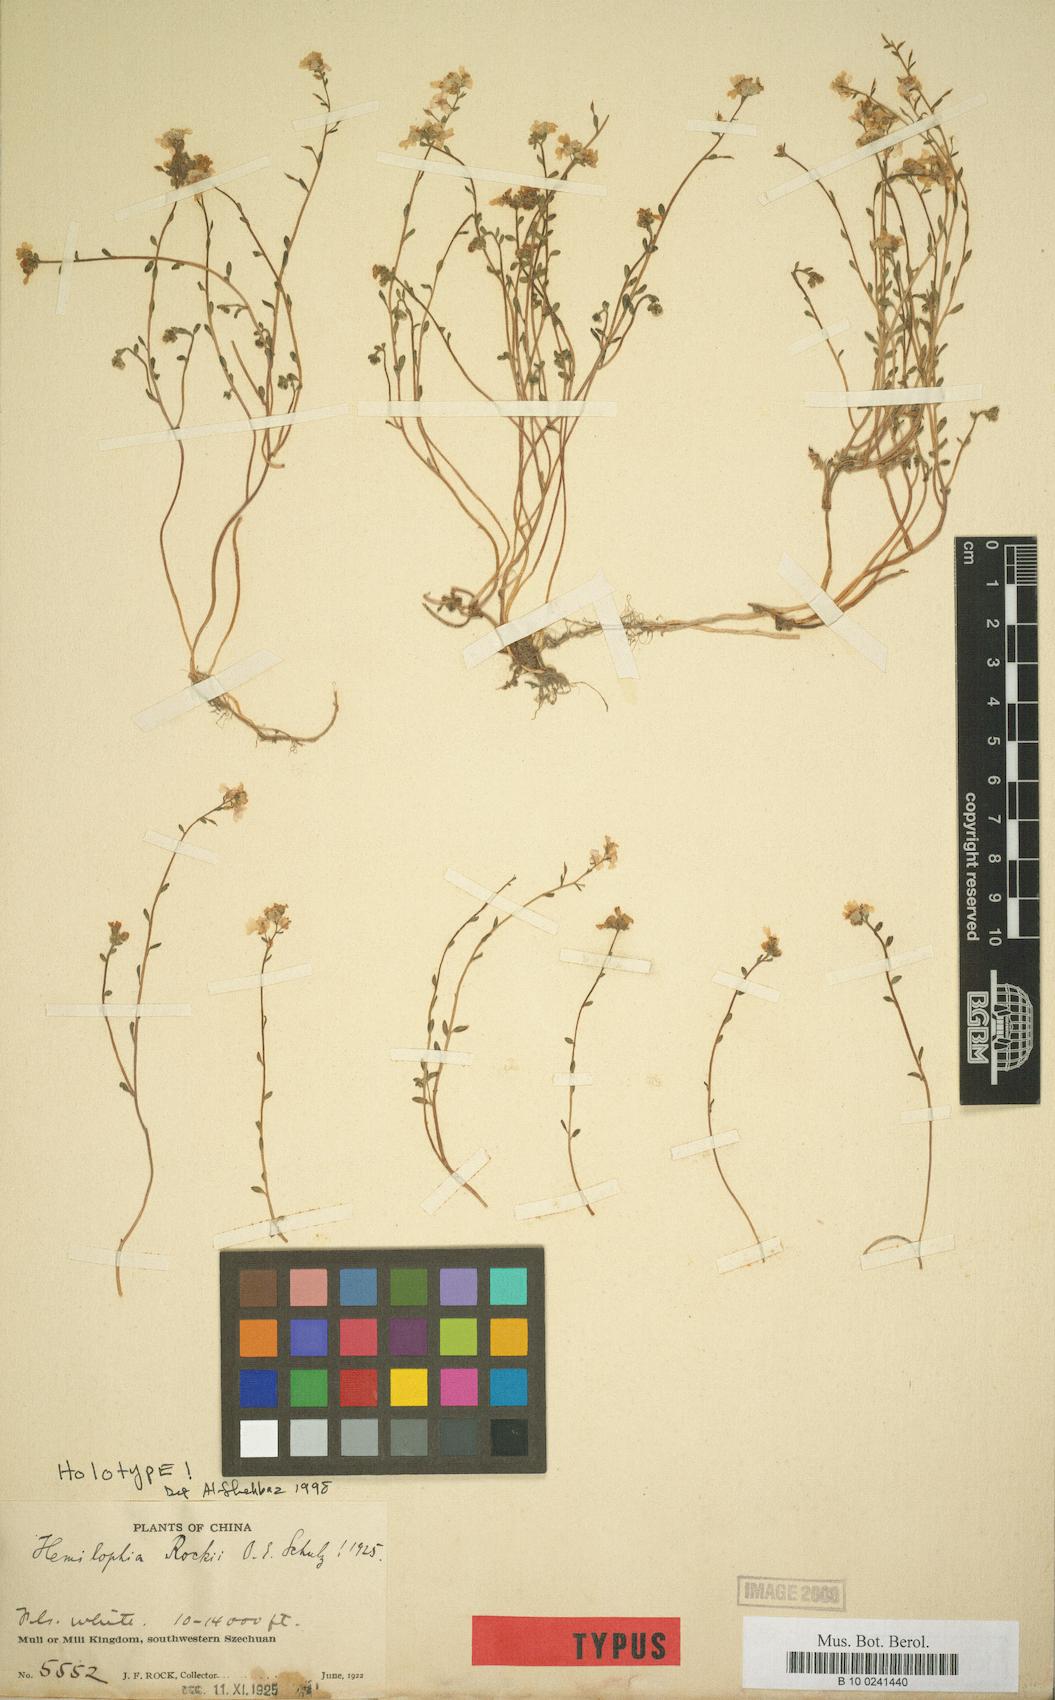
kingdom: Plantae
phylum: Tracheophyta
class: Magnoliopsida
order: Brassicales
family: Brassicaceae
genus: Hemilophia
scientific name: Hemilophia rockii
